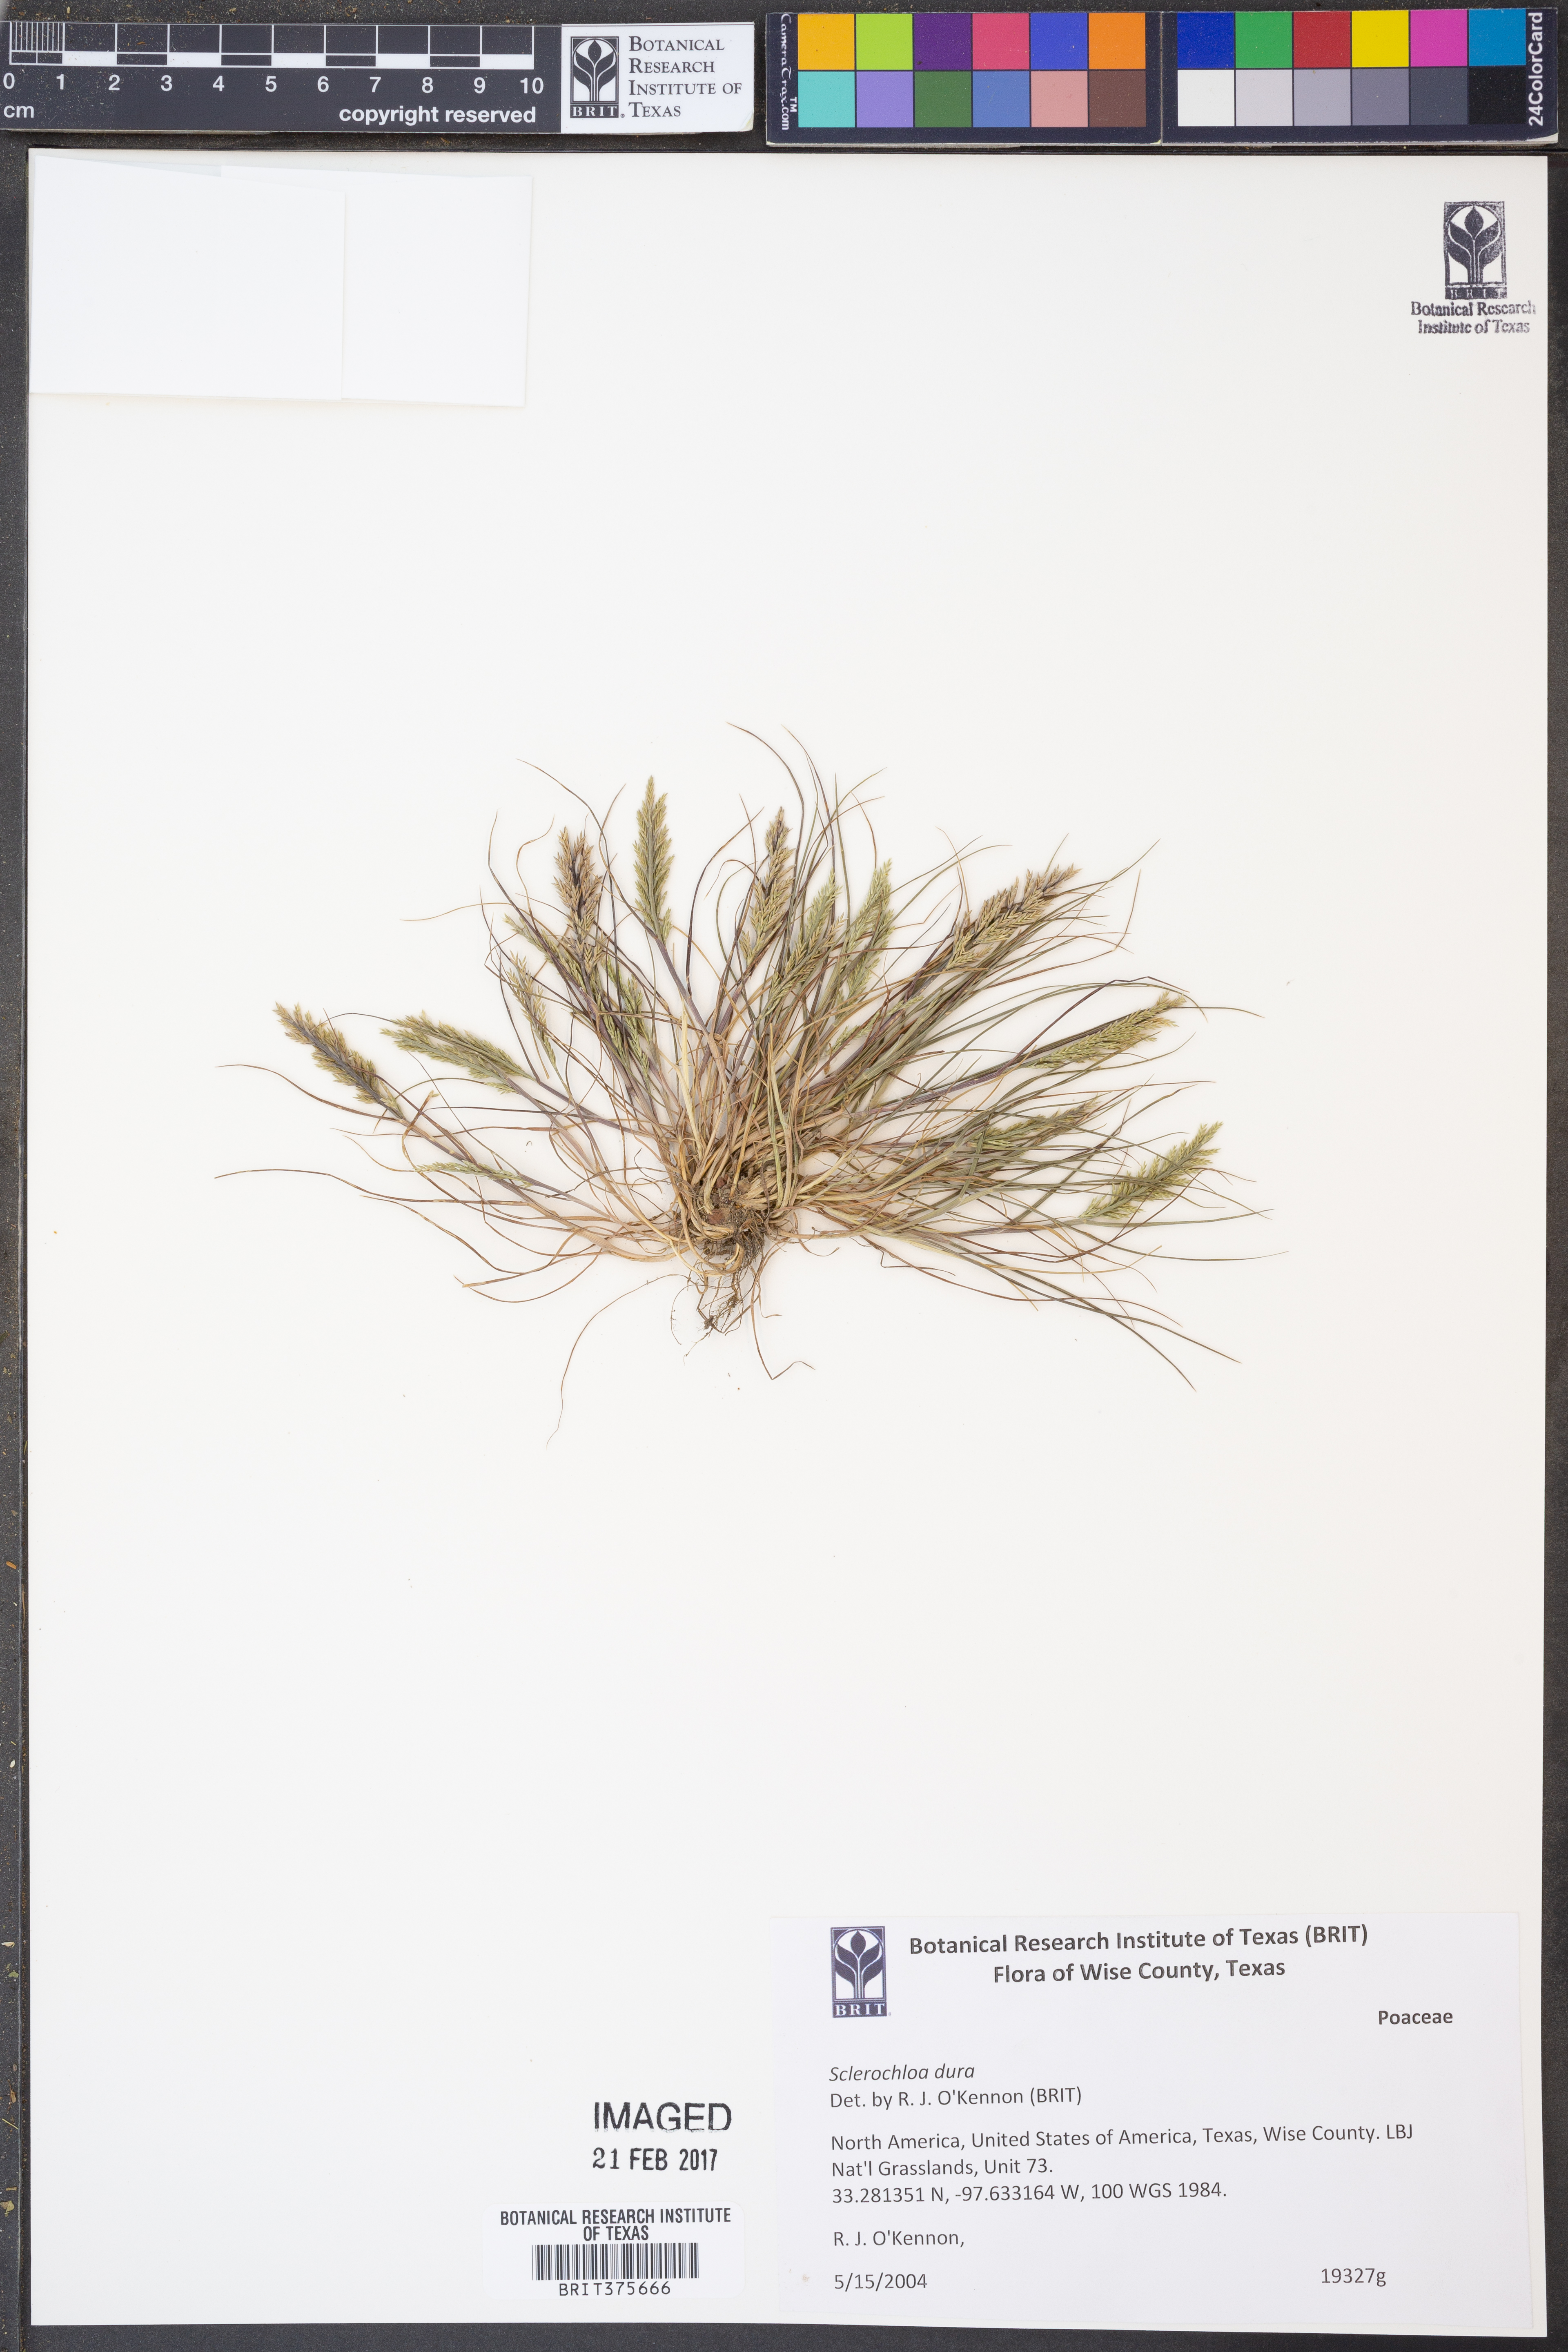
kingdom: Plantae
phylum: Tracheophyta
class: Liliopsida
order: Poales
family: Poaceae
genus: Sclerochloa
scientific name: Sclerochloa dura
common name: Common hardgrass
